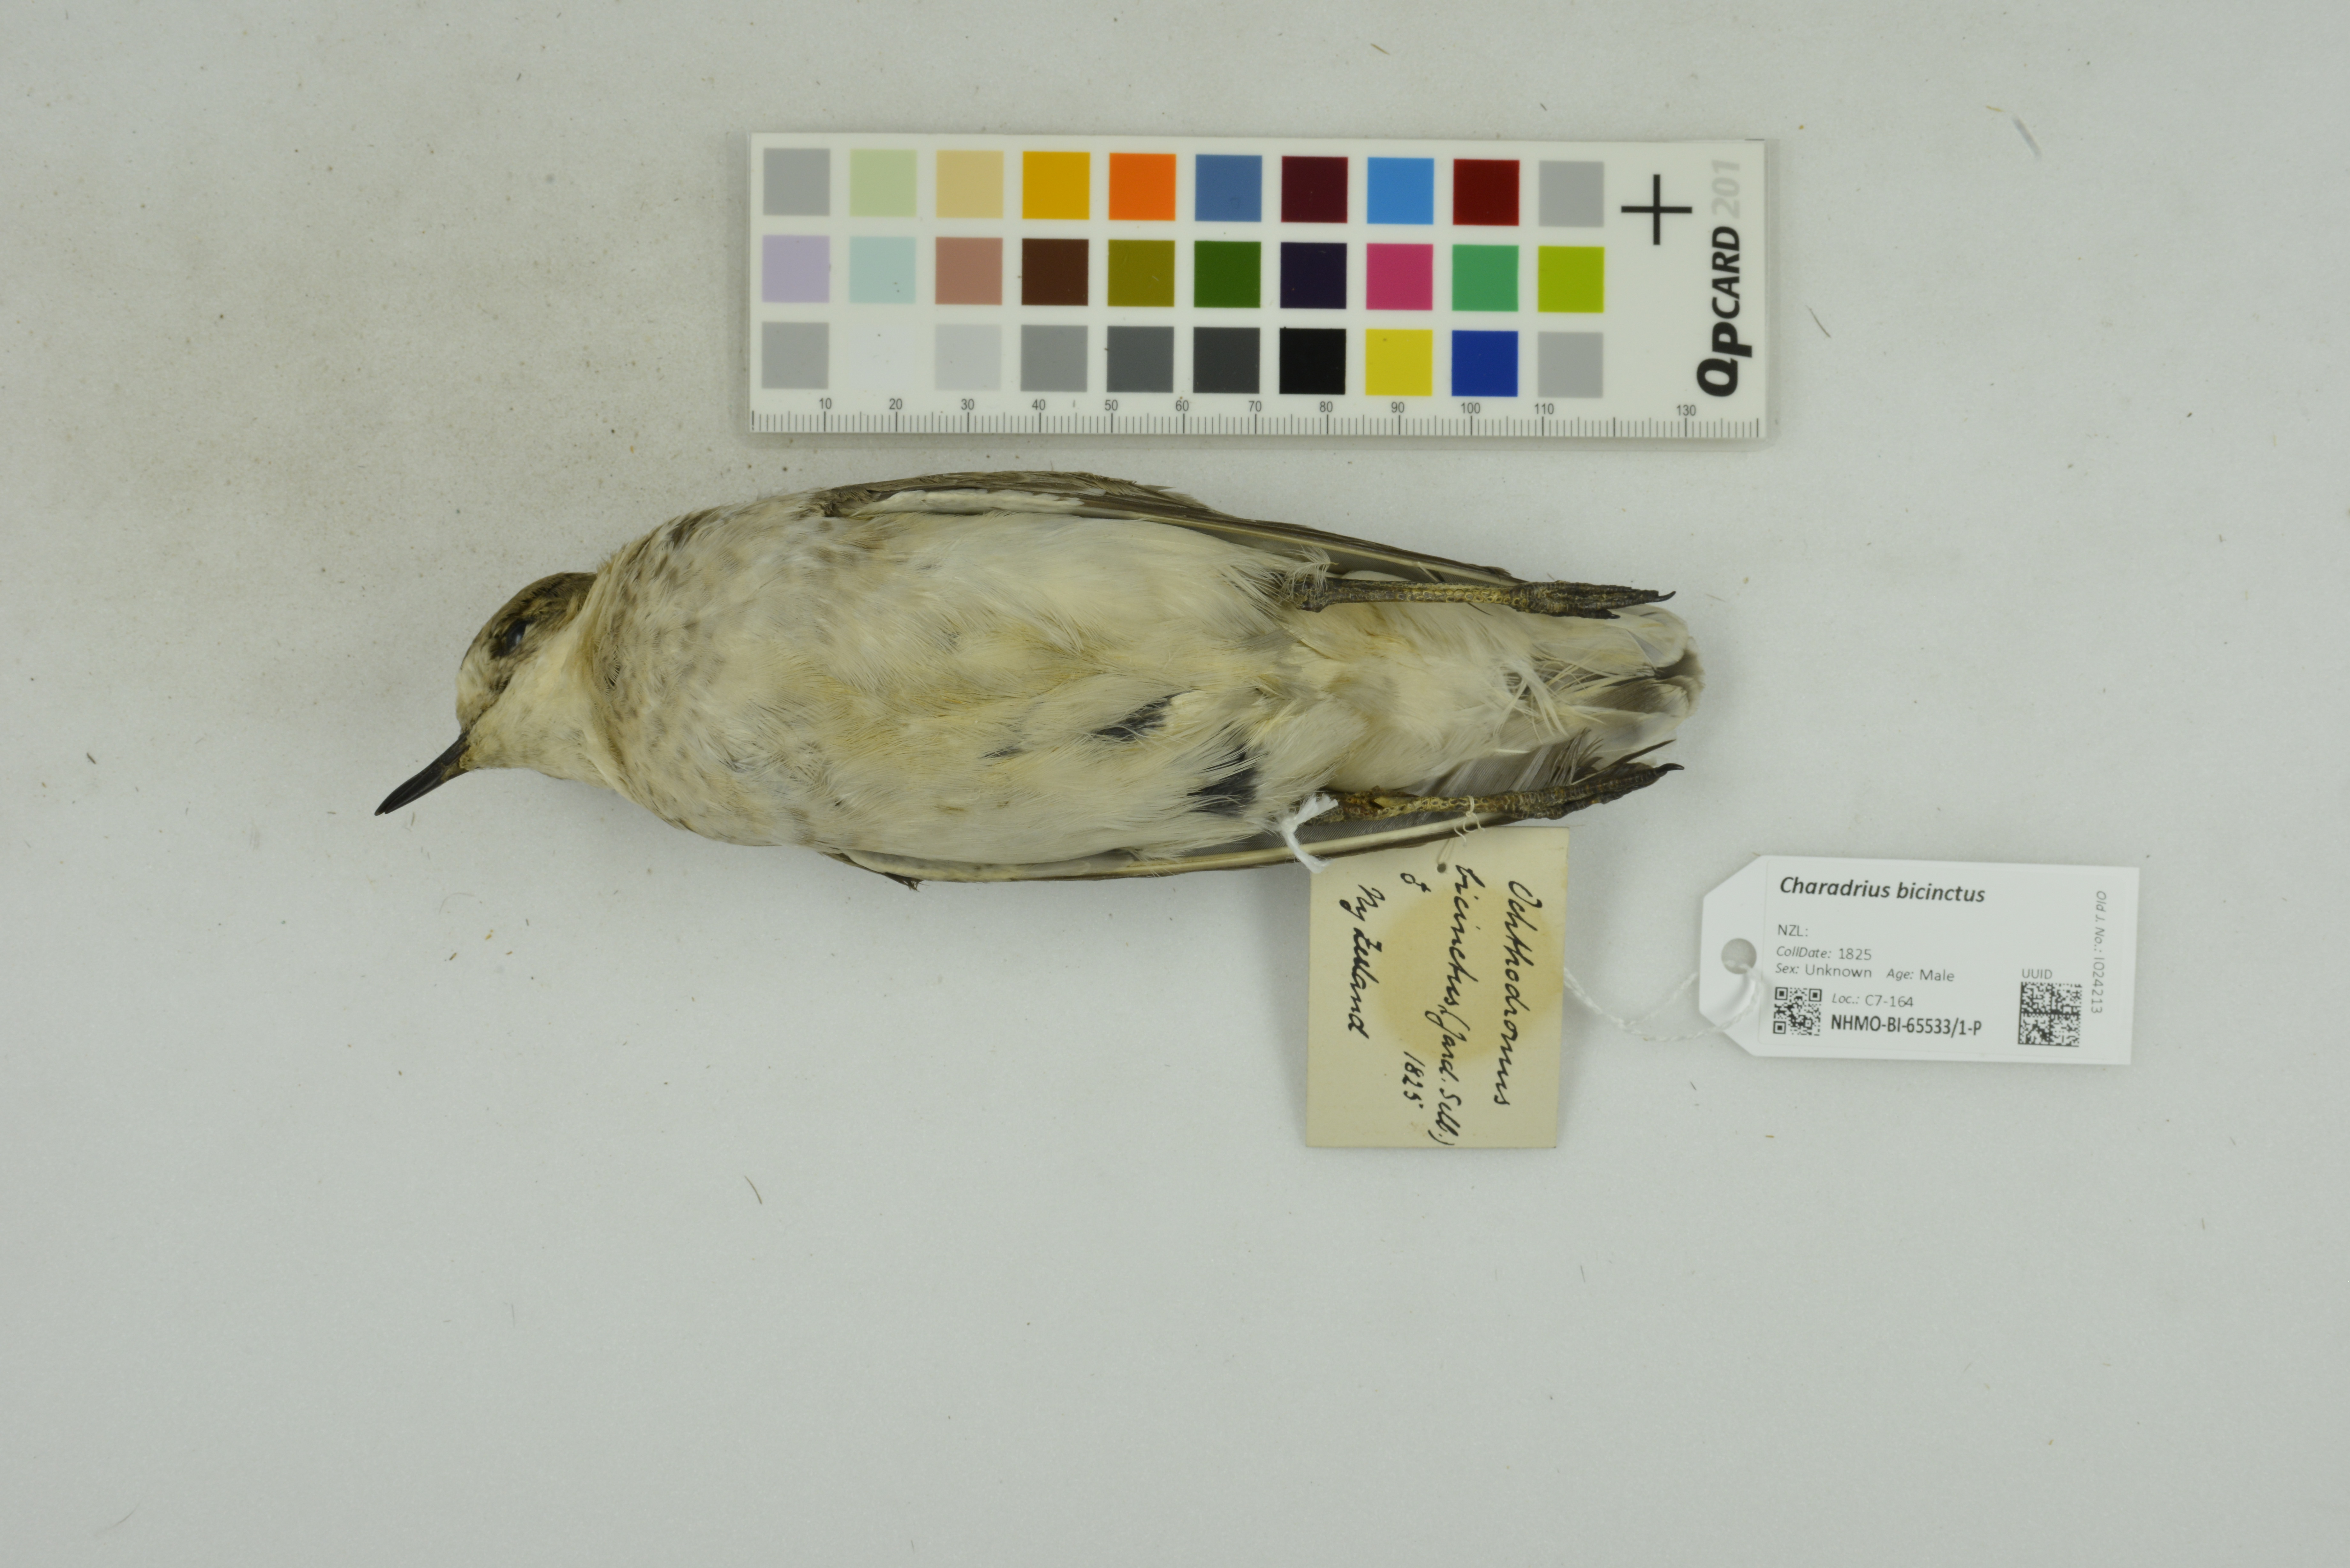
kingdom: Animalia
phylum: Chordata
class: Aves
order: Charadriiformes
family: Charadriidae
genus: Charadrius
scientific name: Charadrius bicinctus
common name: Double-banded plover
